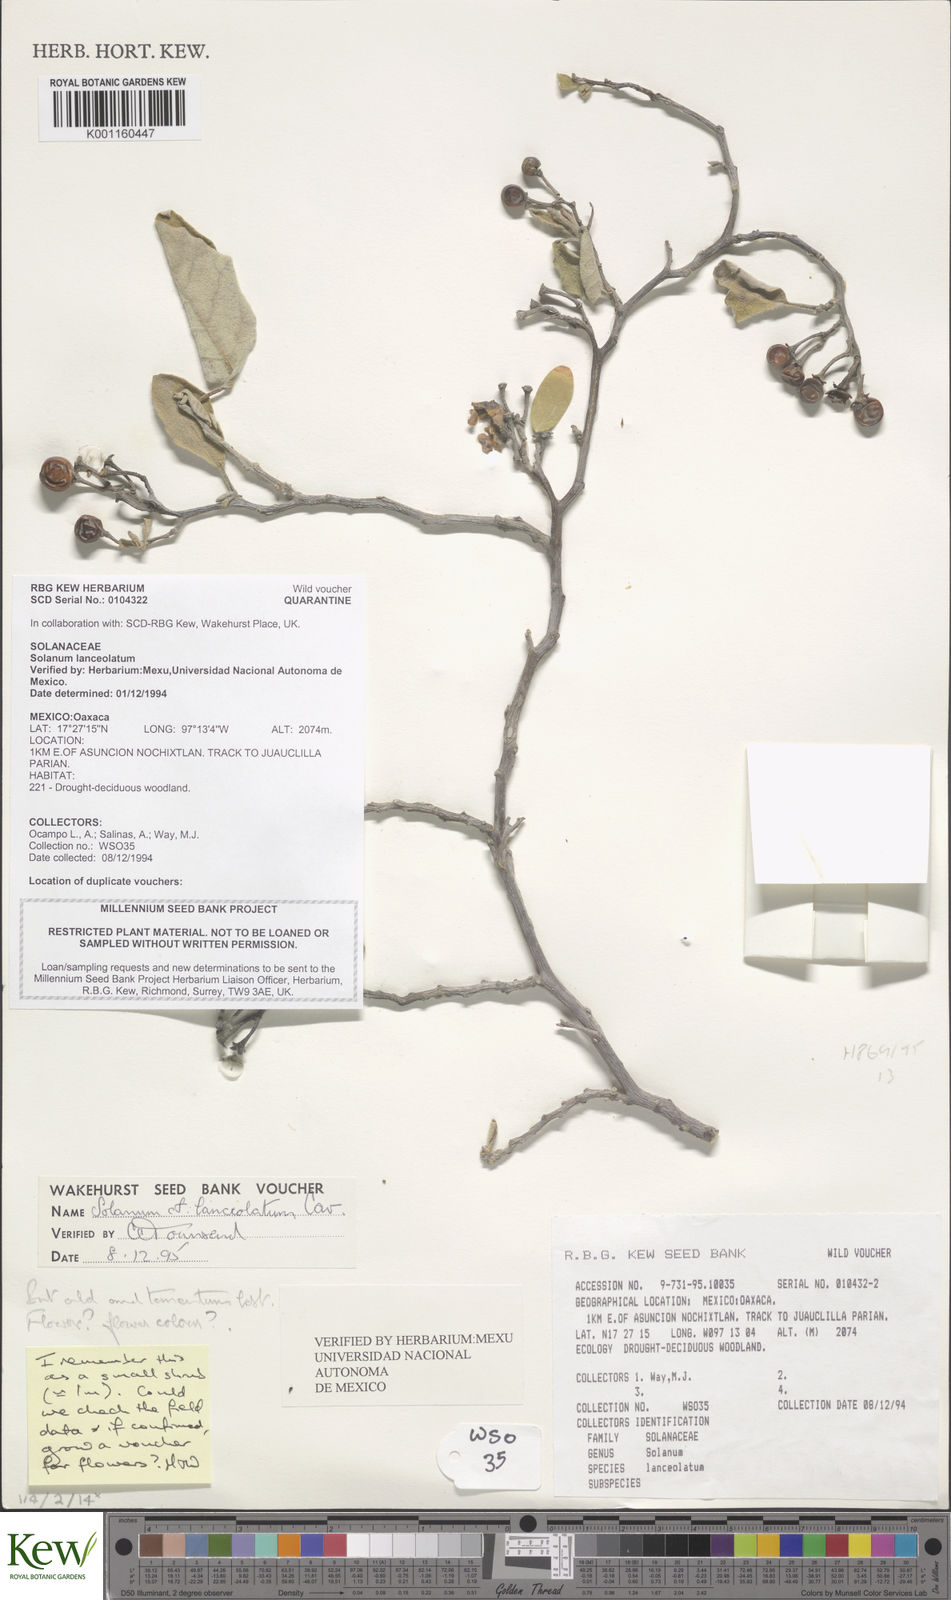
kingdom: Plantae
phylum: Tracheophyta
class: Magnoliopsida
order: Solanales
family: Solanaceae
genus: Solanum
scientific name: Solanum lanceolatum
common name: Orangeberry nightshade
